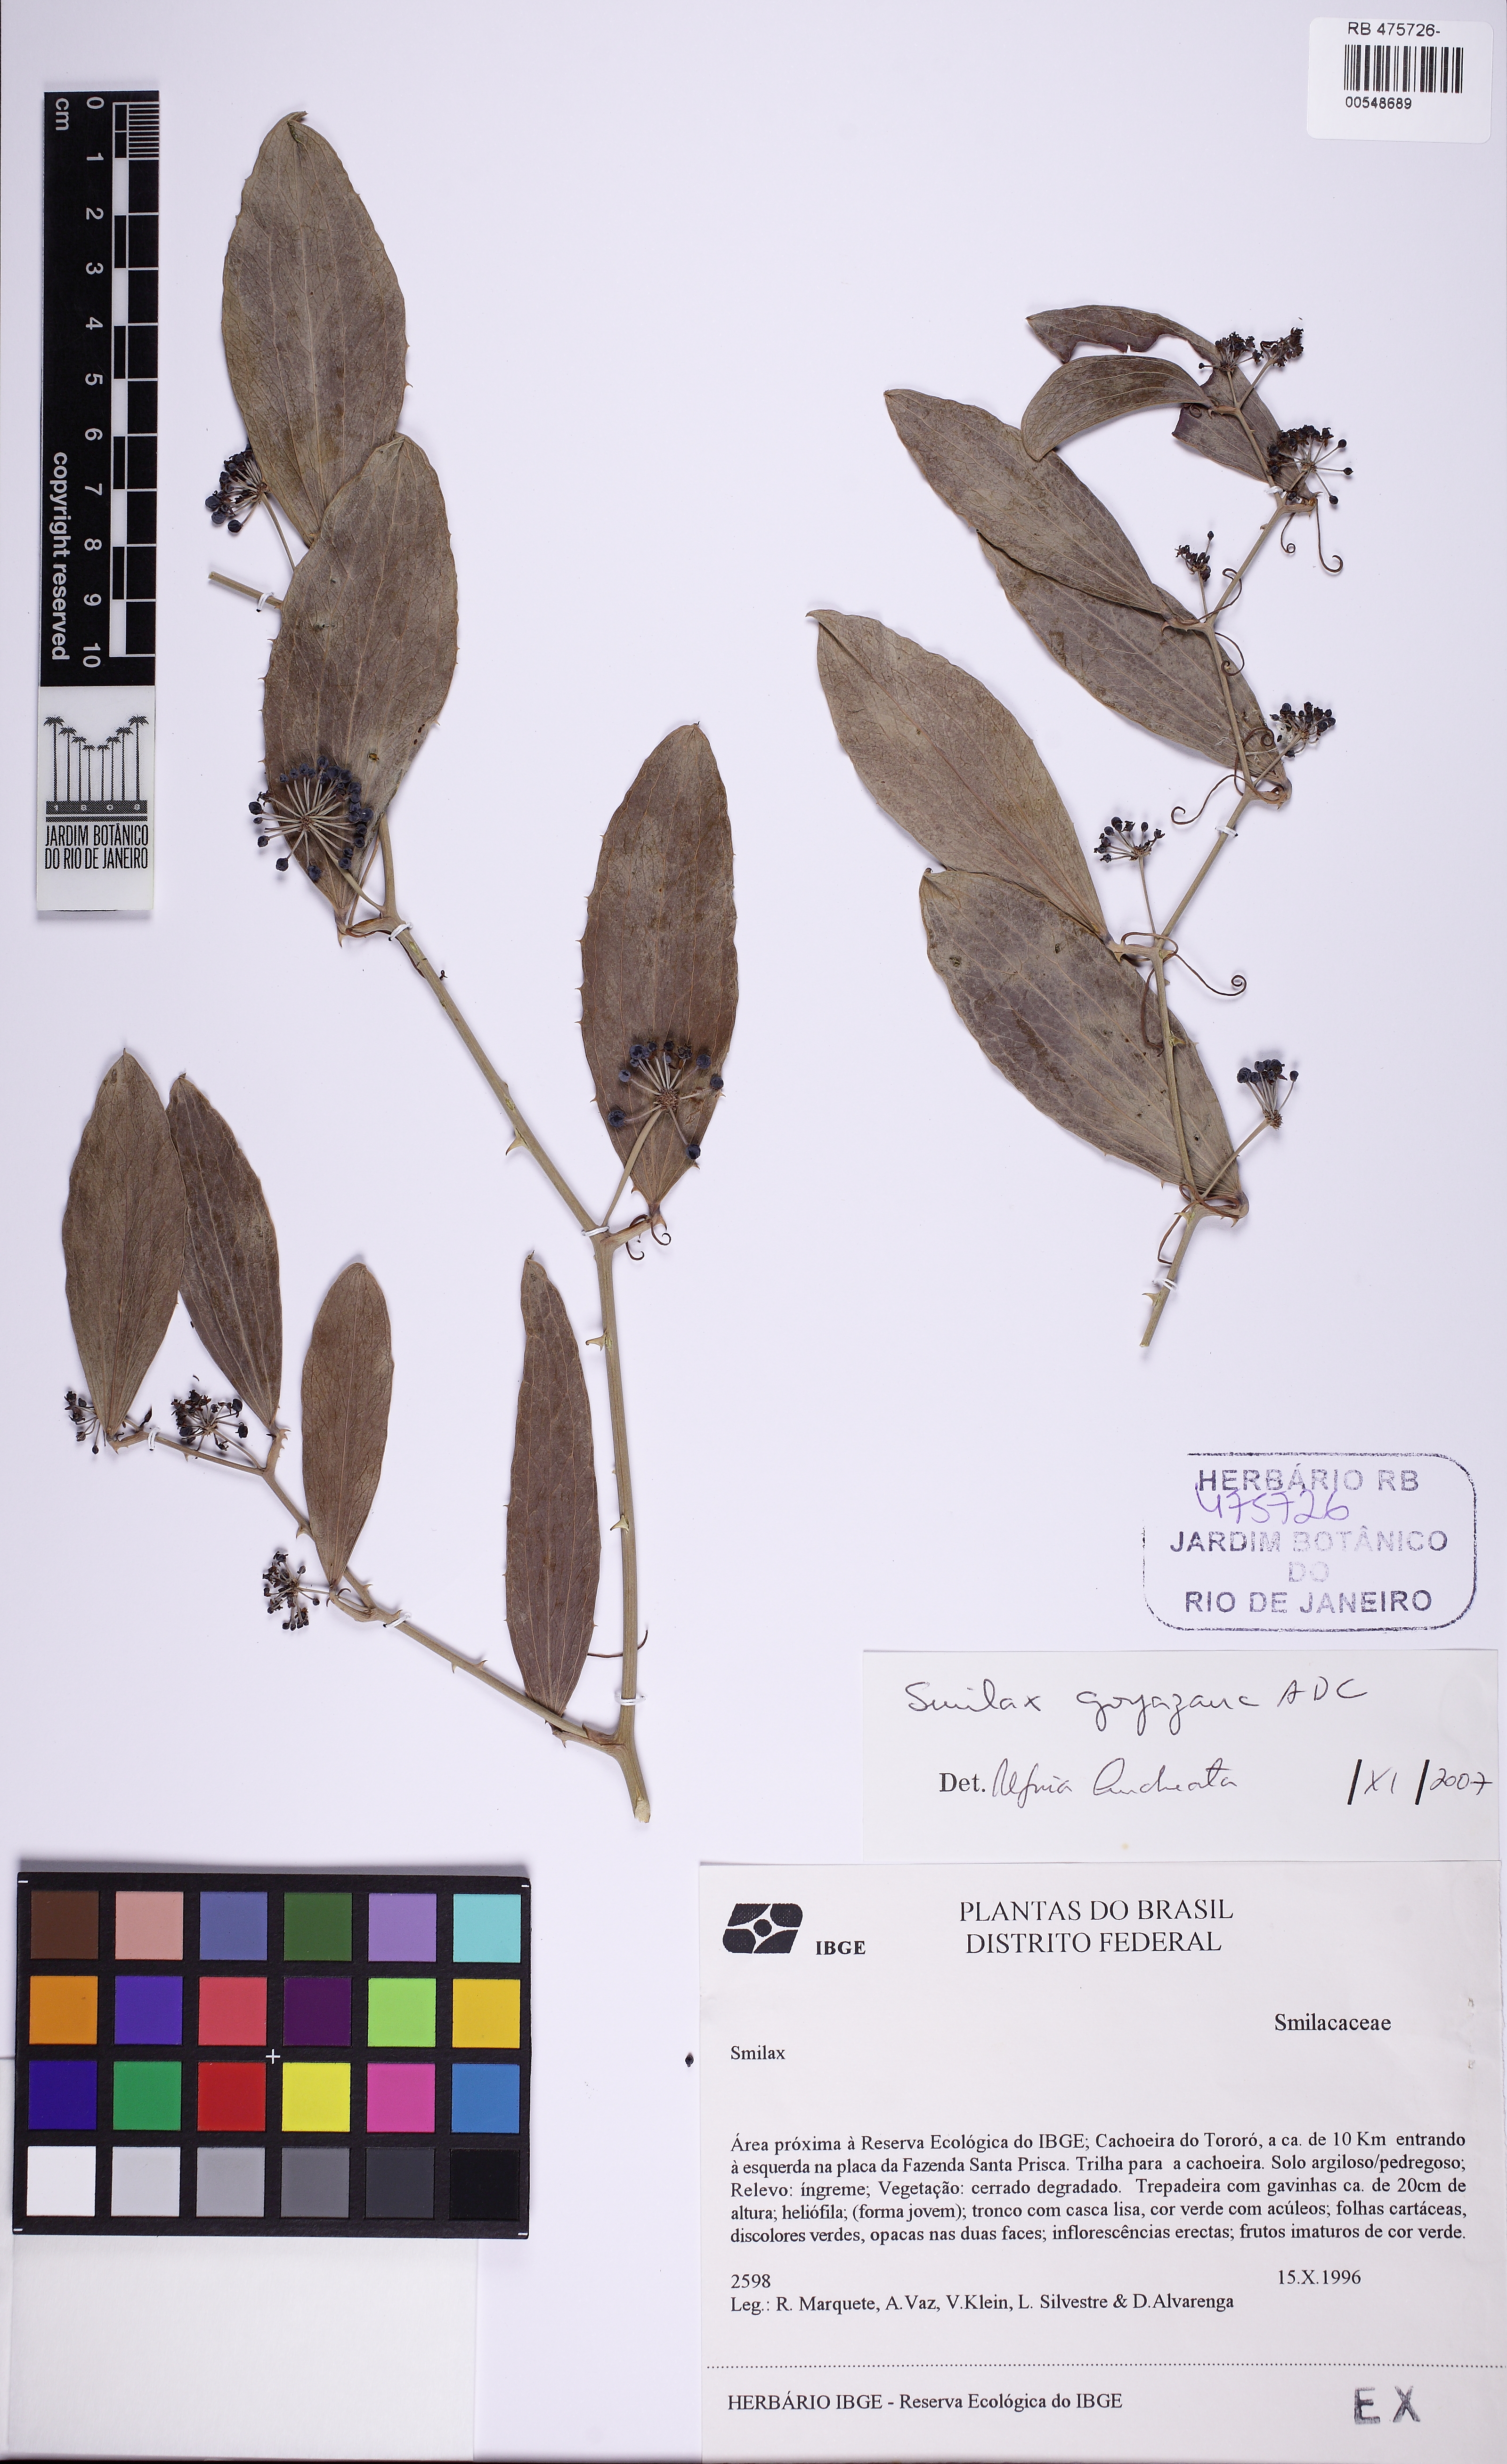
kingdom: Plantae
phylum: Tracheophyta
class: Liliopsida
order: Liliales
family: Smilacaceae
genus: Smilax
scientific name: Smilax goyazana
